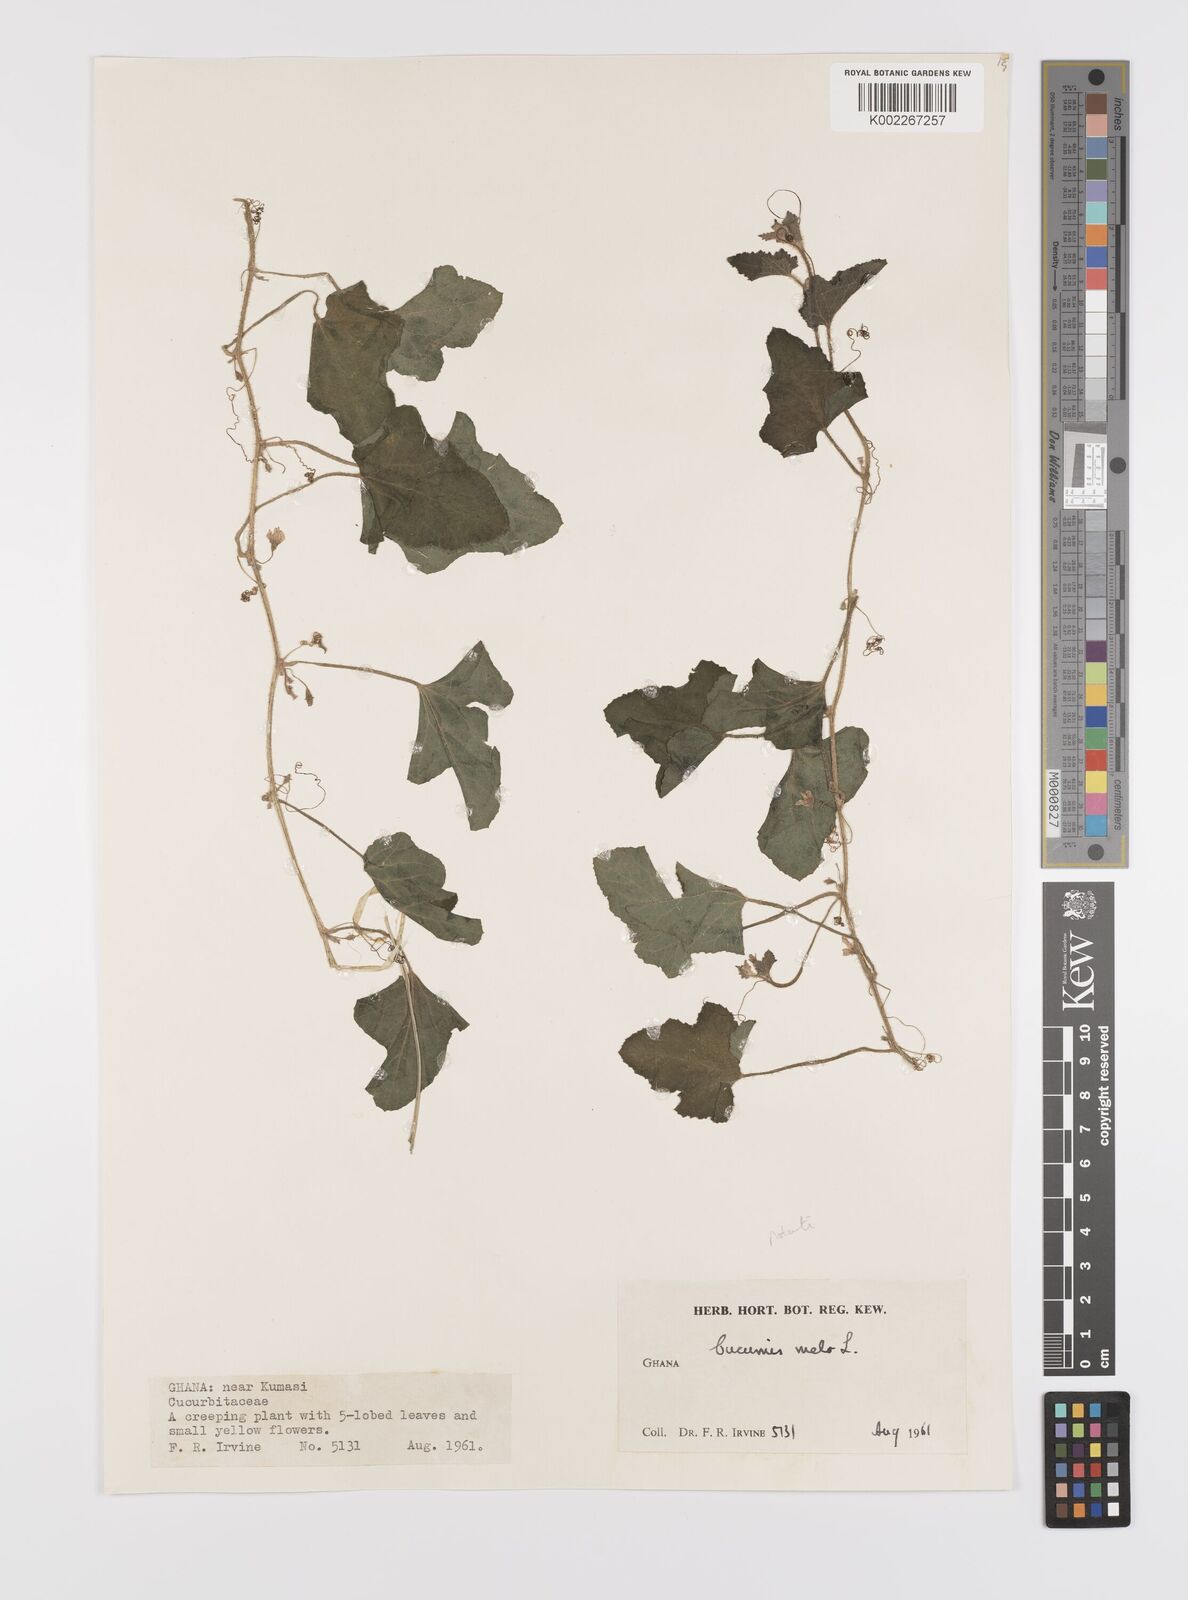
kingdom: Plantae
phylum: Tracheophyta
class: Magnoliopsida
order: Cucurbitales
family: Cucurbitaceae
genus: Cucumis
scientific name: Cucumis melo
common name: Melon
